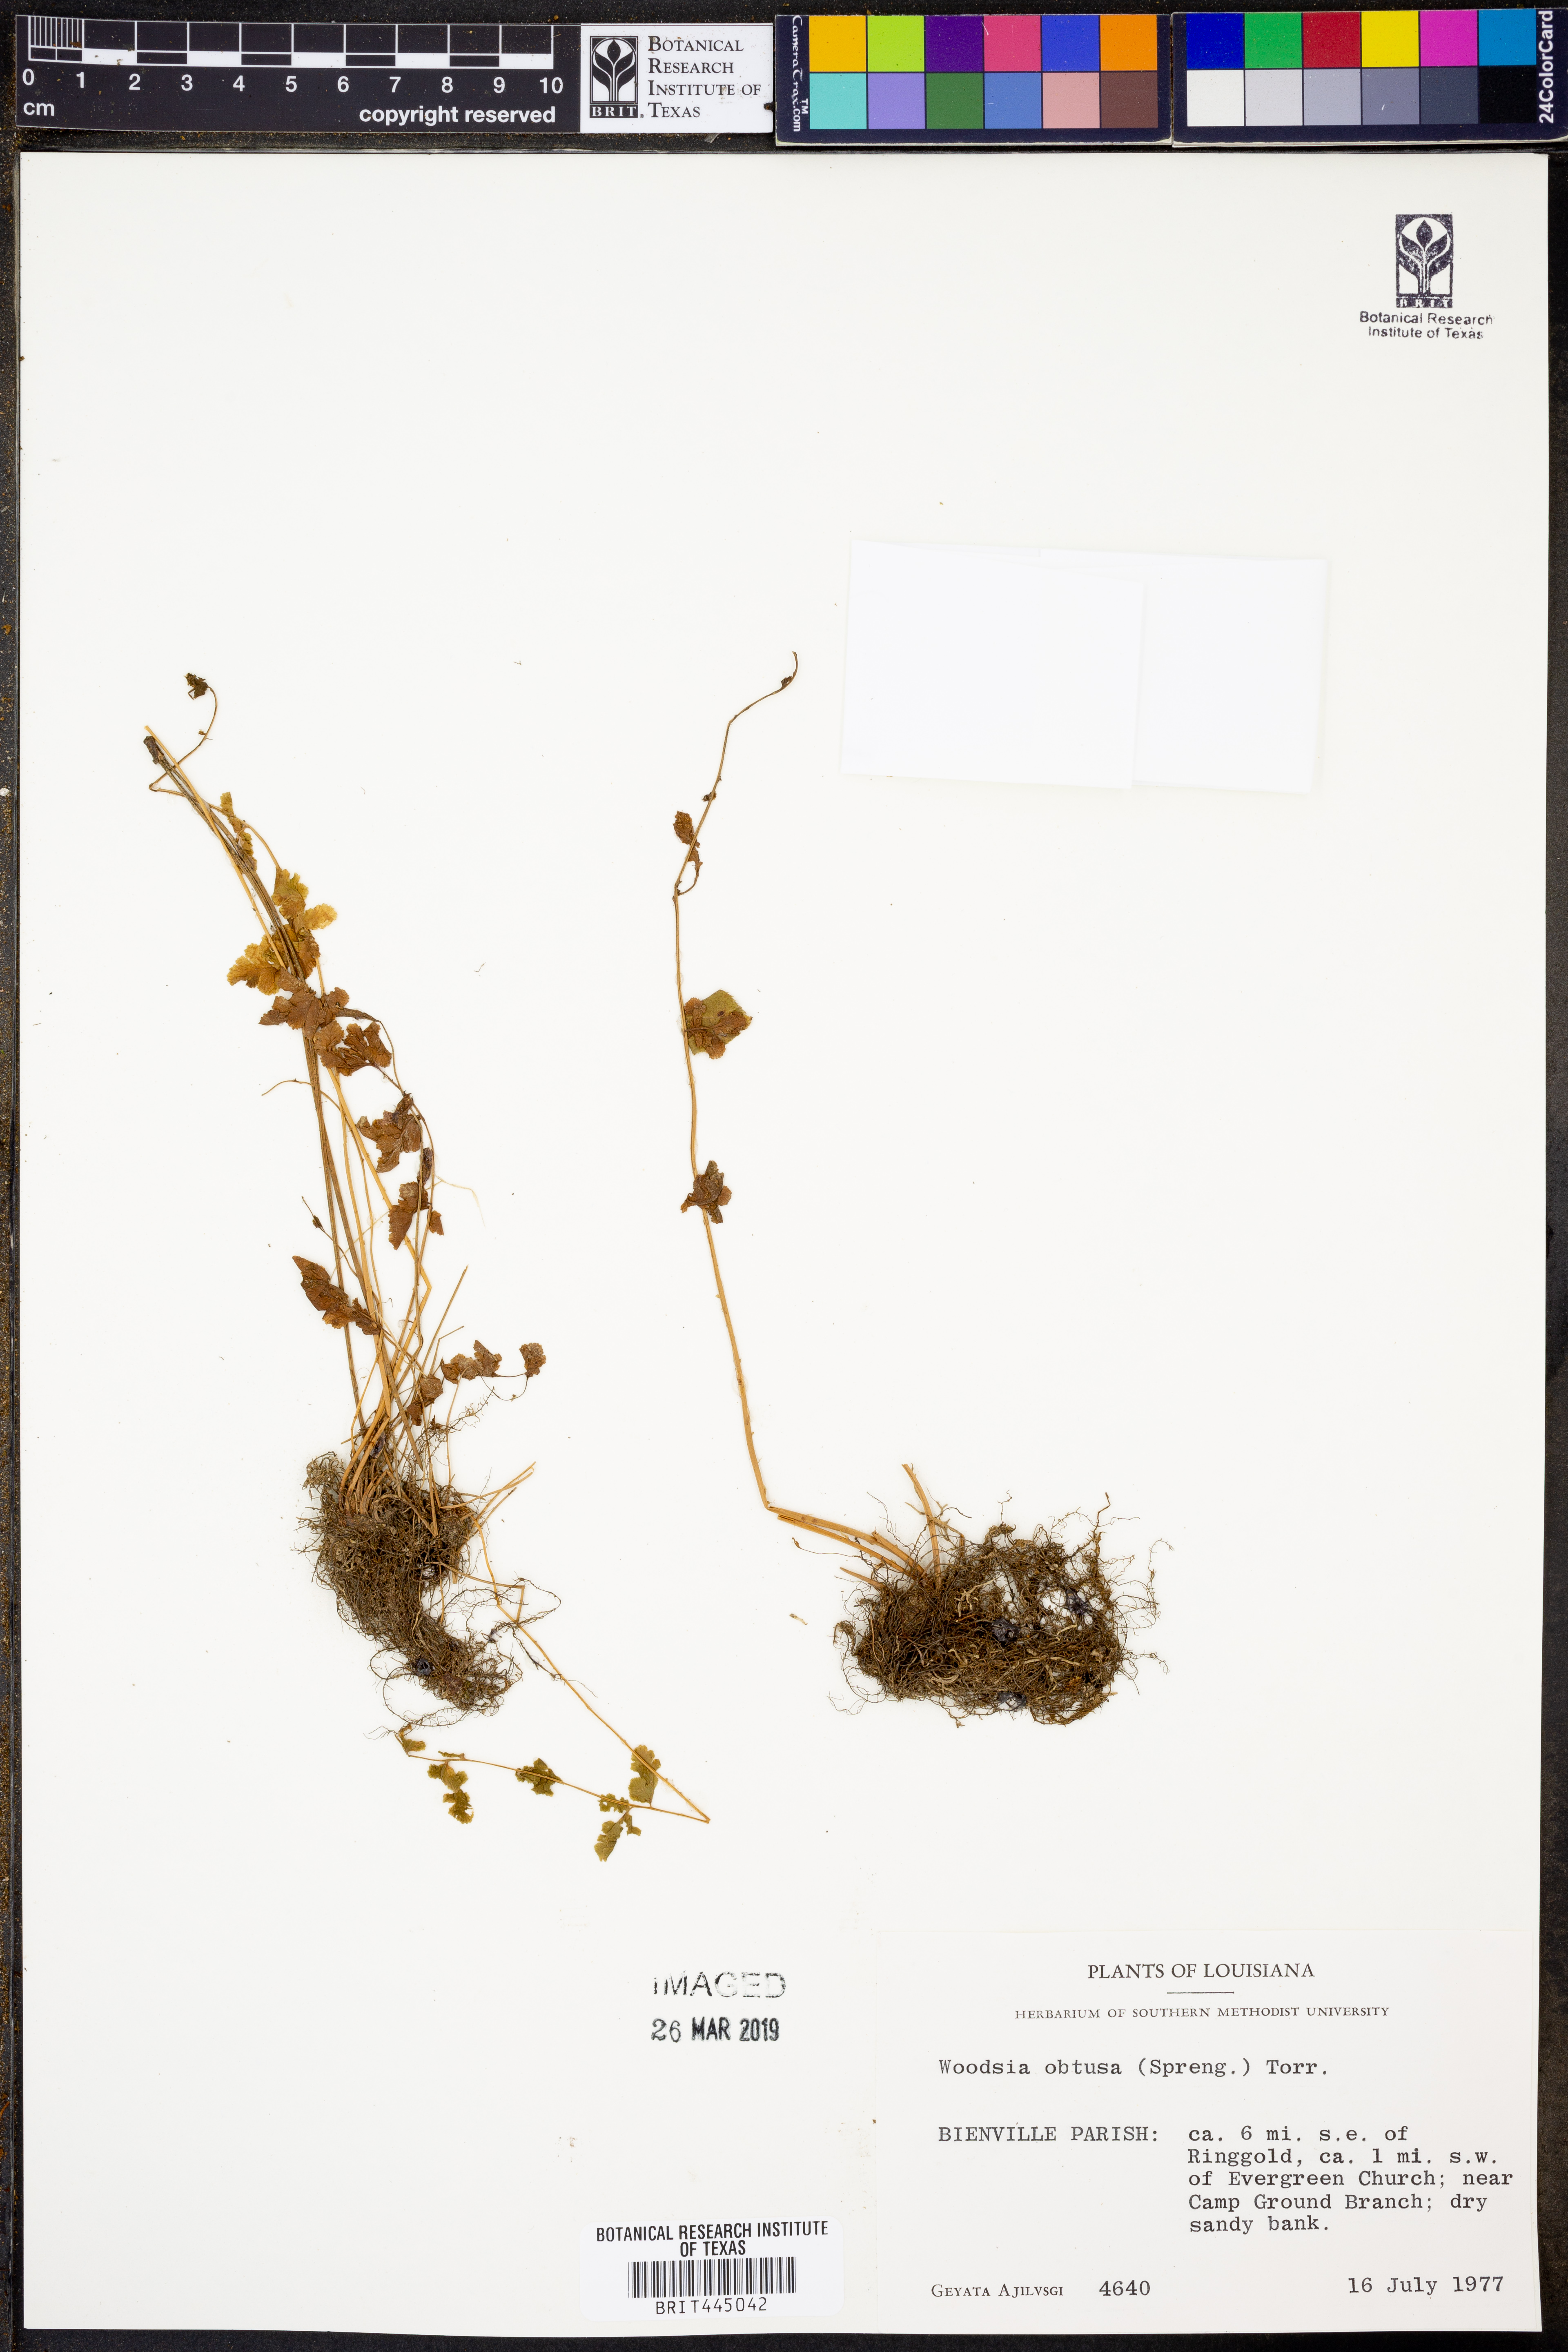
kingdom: Plantae
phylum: Tracheophyta
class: Polypodiopsida
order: Polypodiales
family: Woodsiaceae
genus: Physematium
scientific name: Physematium obtusum
